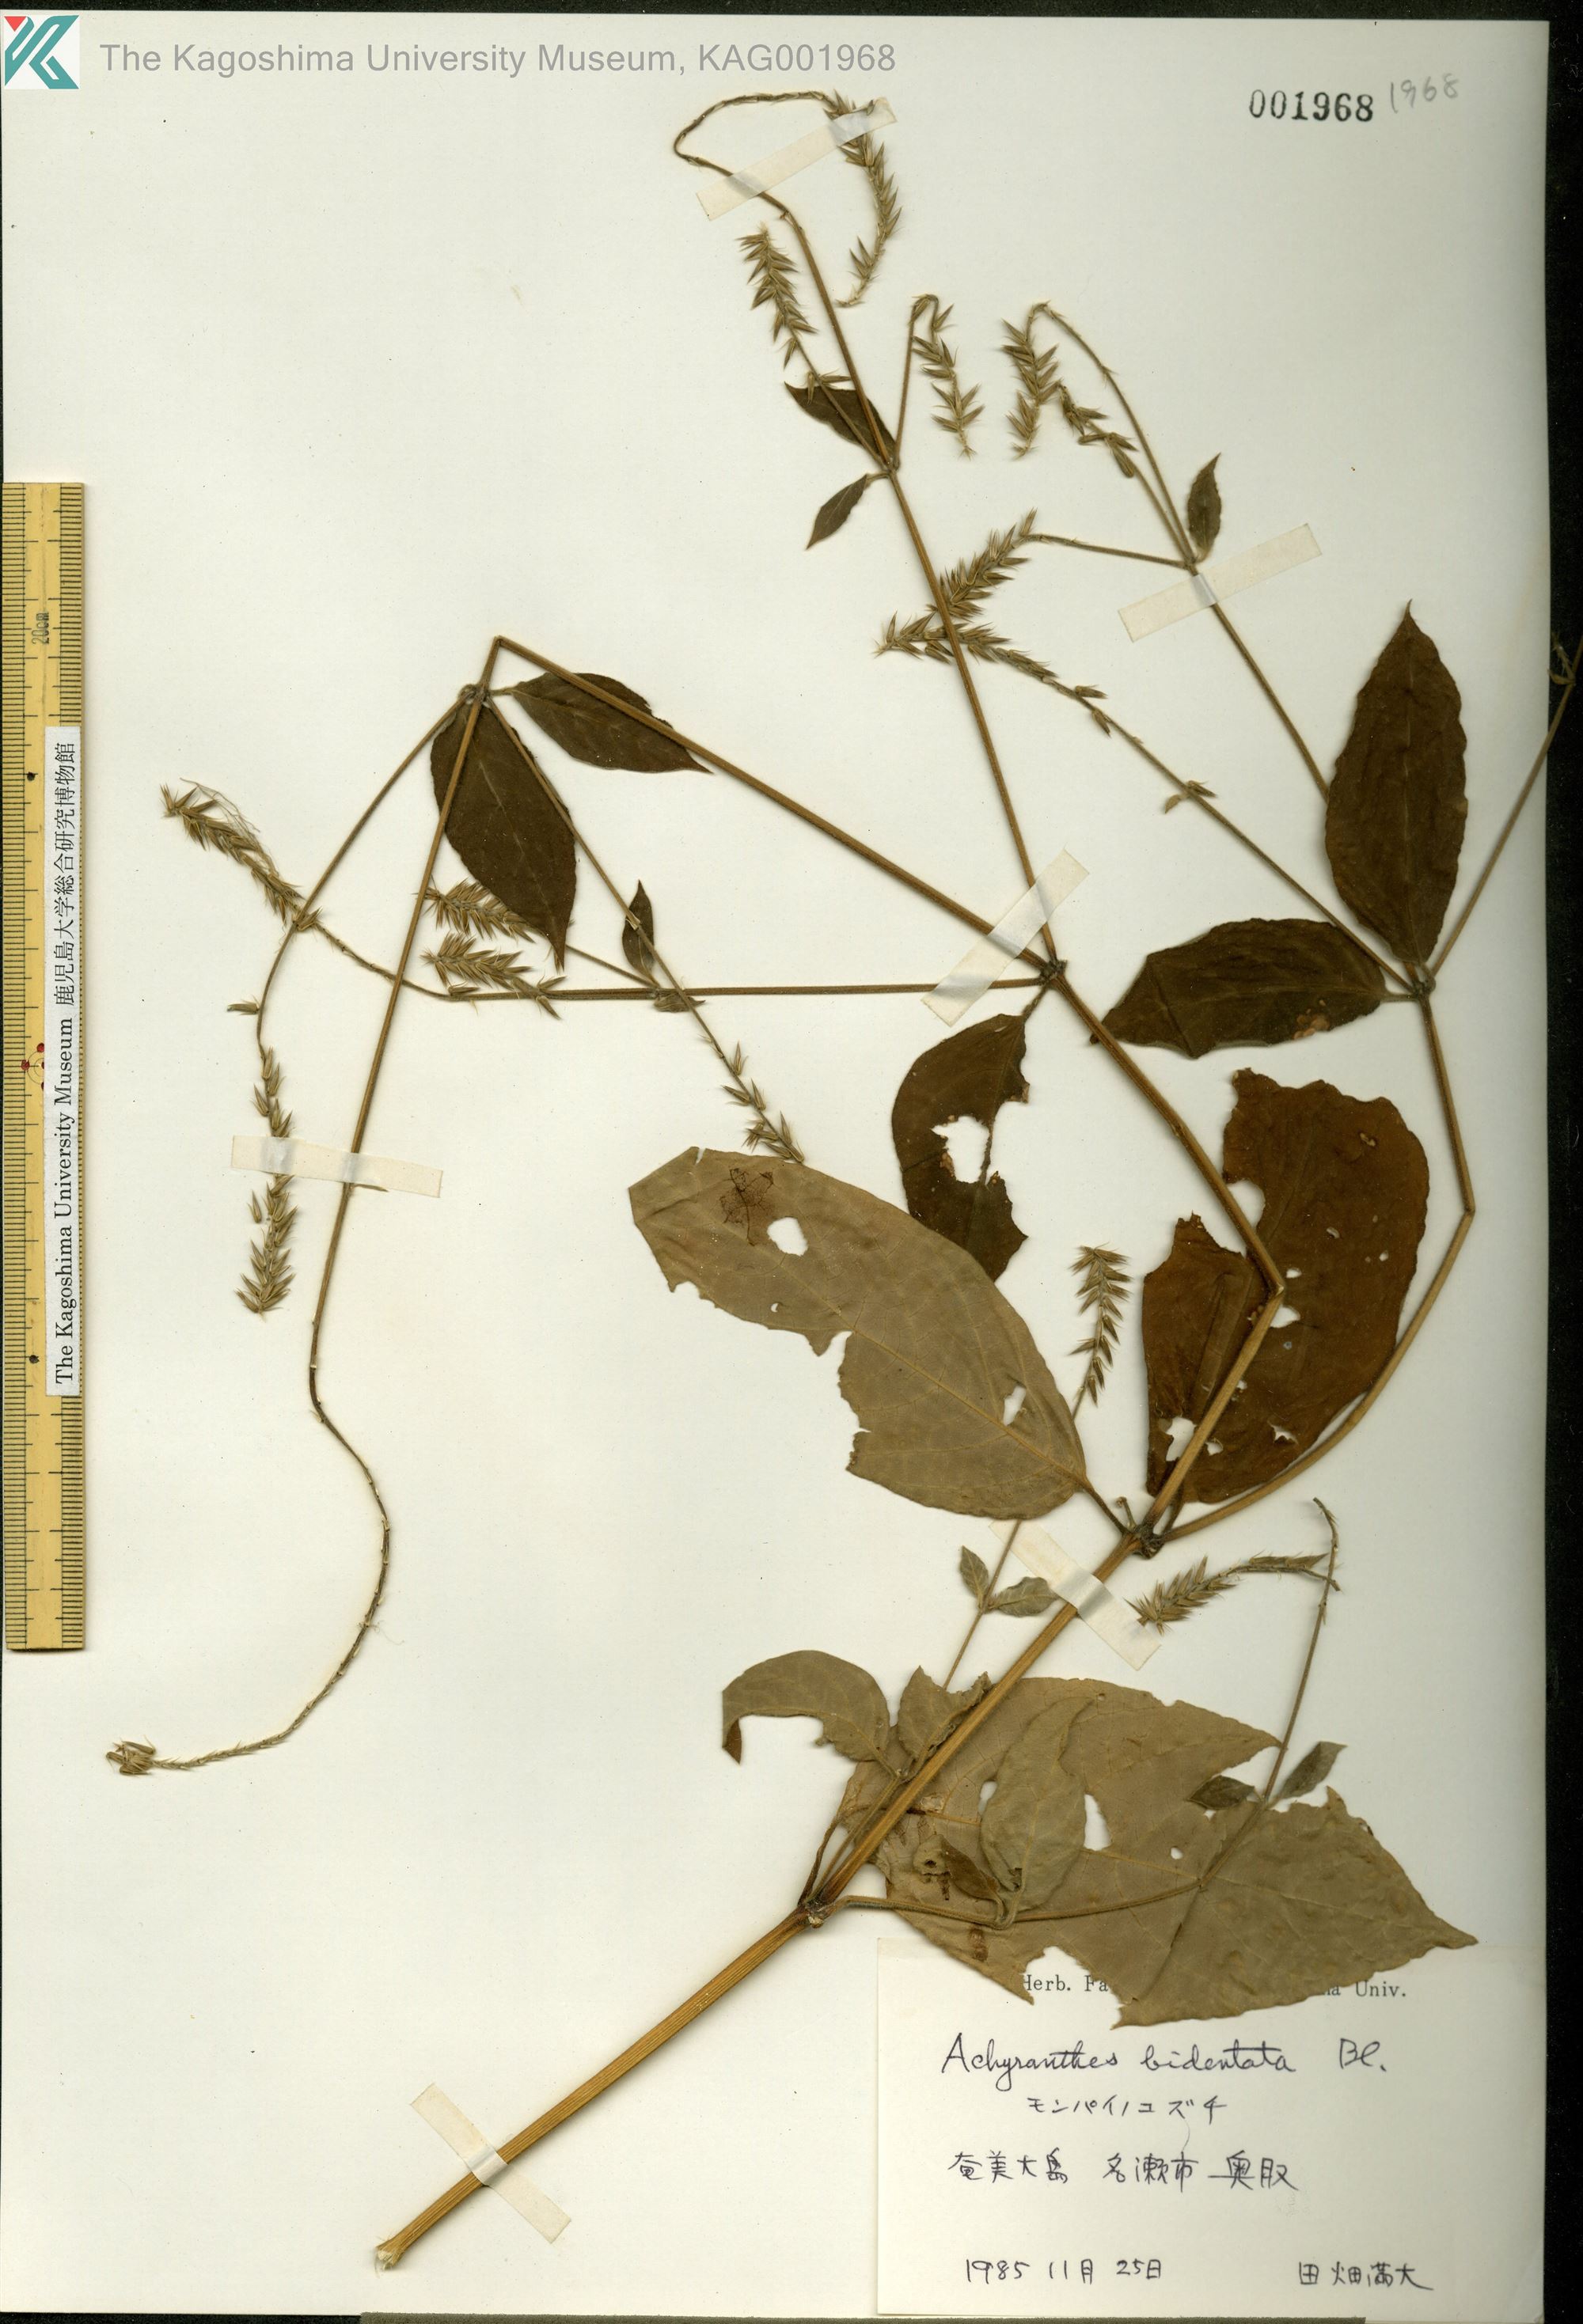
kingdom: Plantae
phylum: Tracheophyta
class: Magnoliopsida
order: Caryophyllales
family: Amaranthaceae
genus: Achyranthes
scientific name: Achyranthes bidentata
